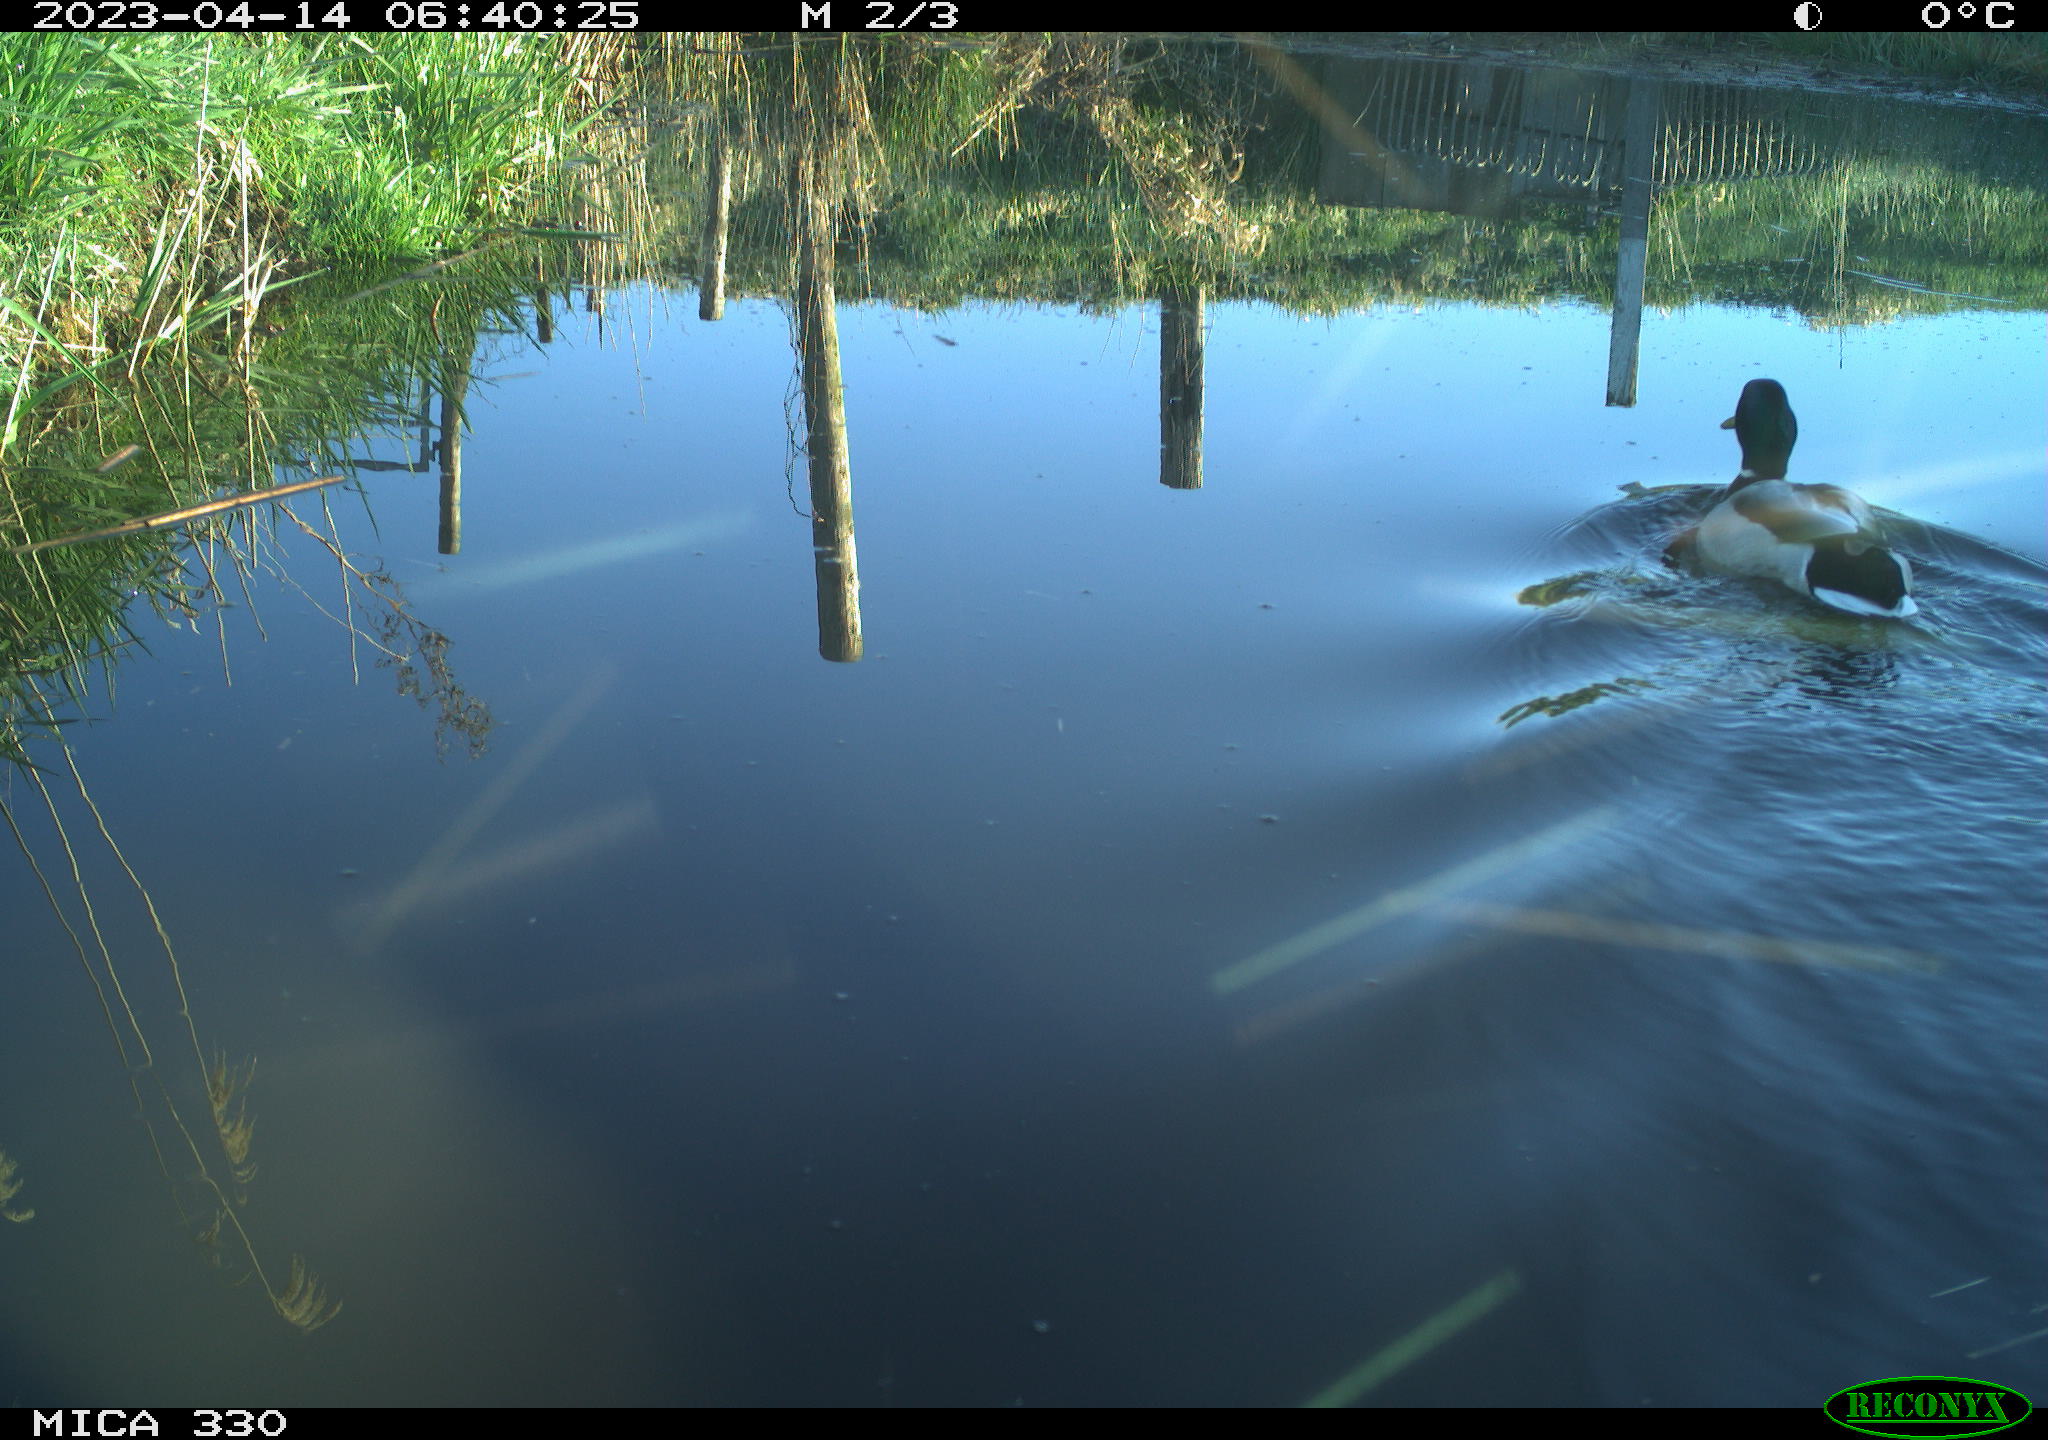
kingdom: Animalia
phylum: Chordata
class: Aves
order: Anseriformes
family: Anatidae
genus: Anas
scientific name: Anas
